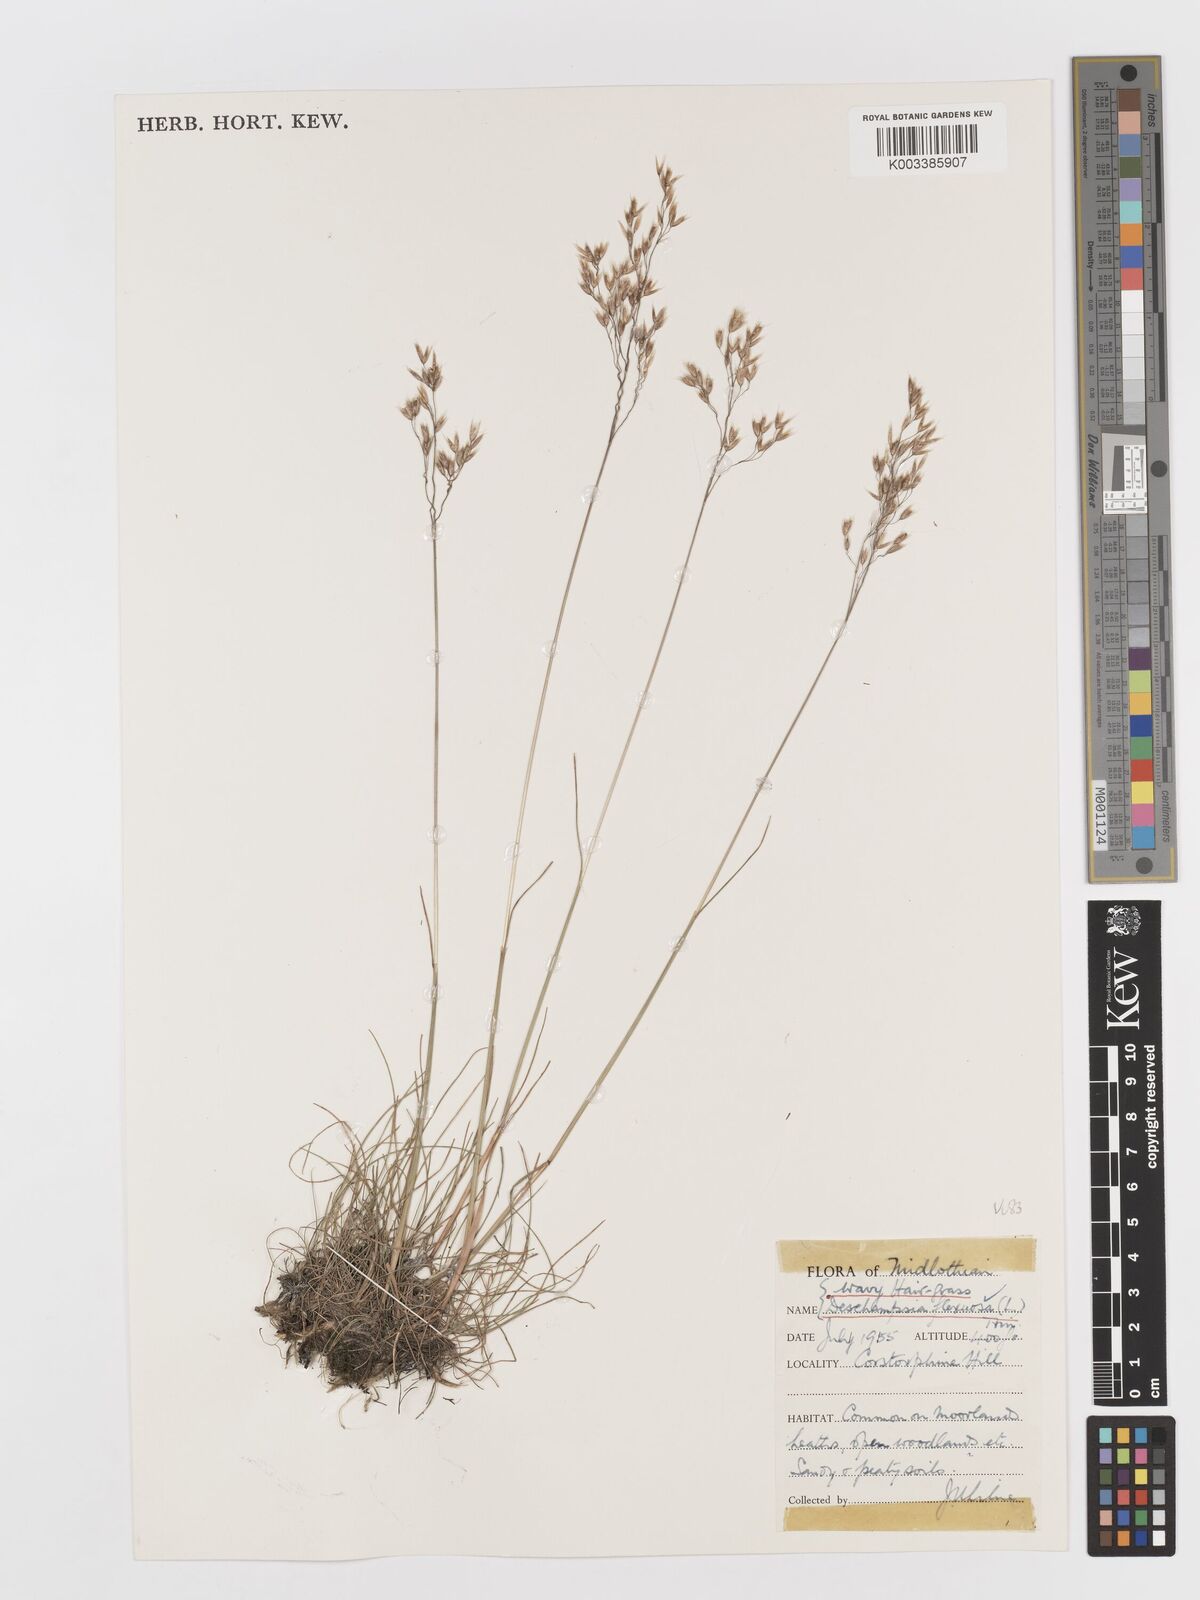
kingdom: Plantae
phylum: Tracheophyta
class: Liliopsida
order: Poales
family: Poaceae
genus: Avenella
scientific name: Avenella flexuosa
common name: Wavy hairgrass
